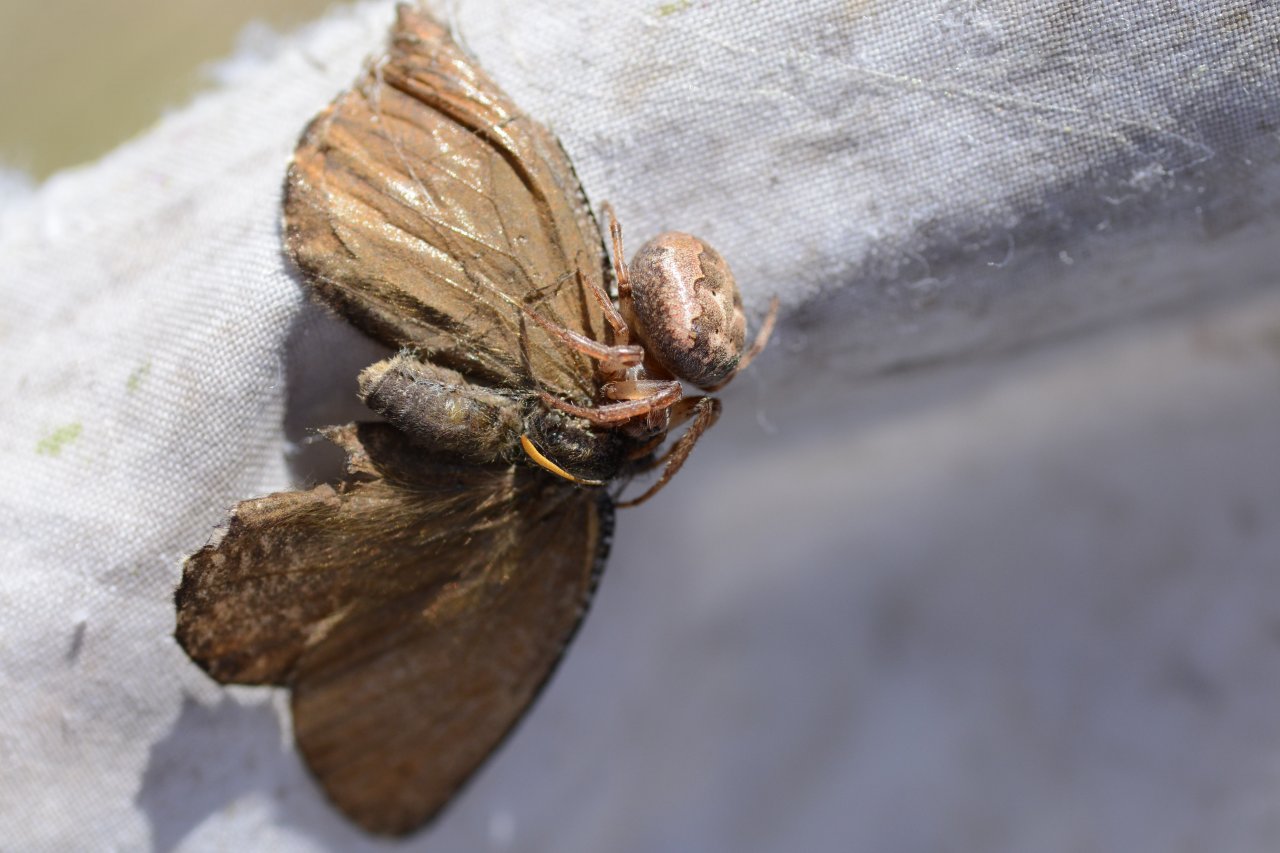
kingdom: Animalia
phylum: Arthropoda
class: Insecta
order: Lepidoptera
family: Nymphalidae
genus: Oeneis
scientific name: Oeneis melissa
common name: Melissa Arctic
